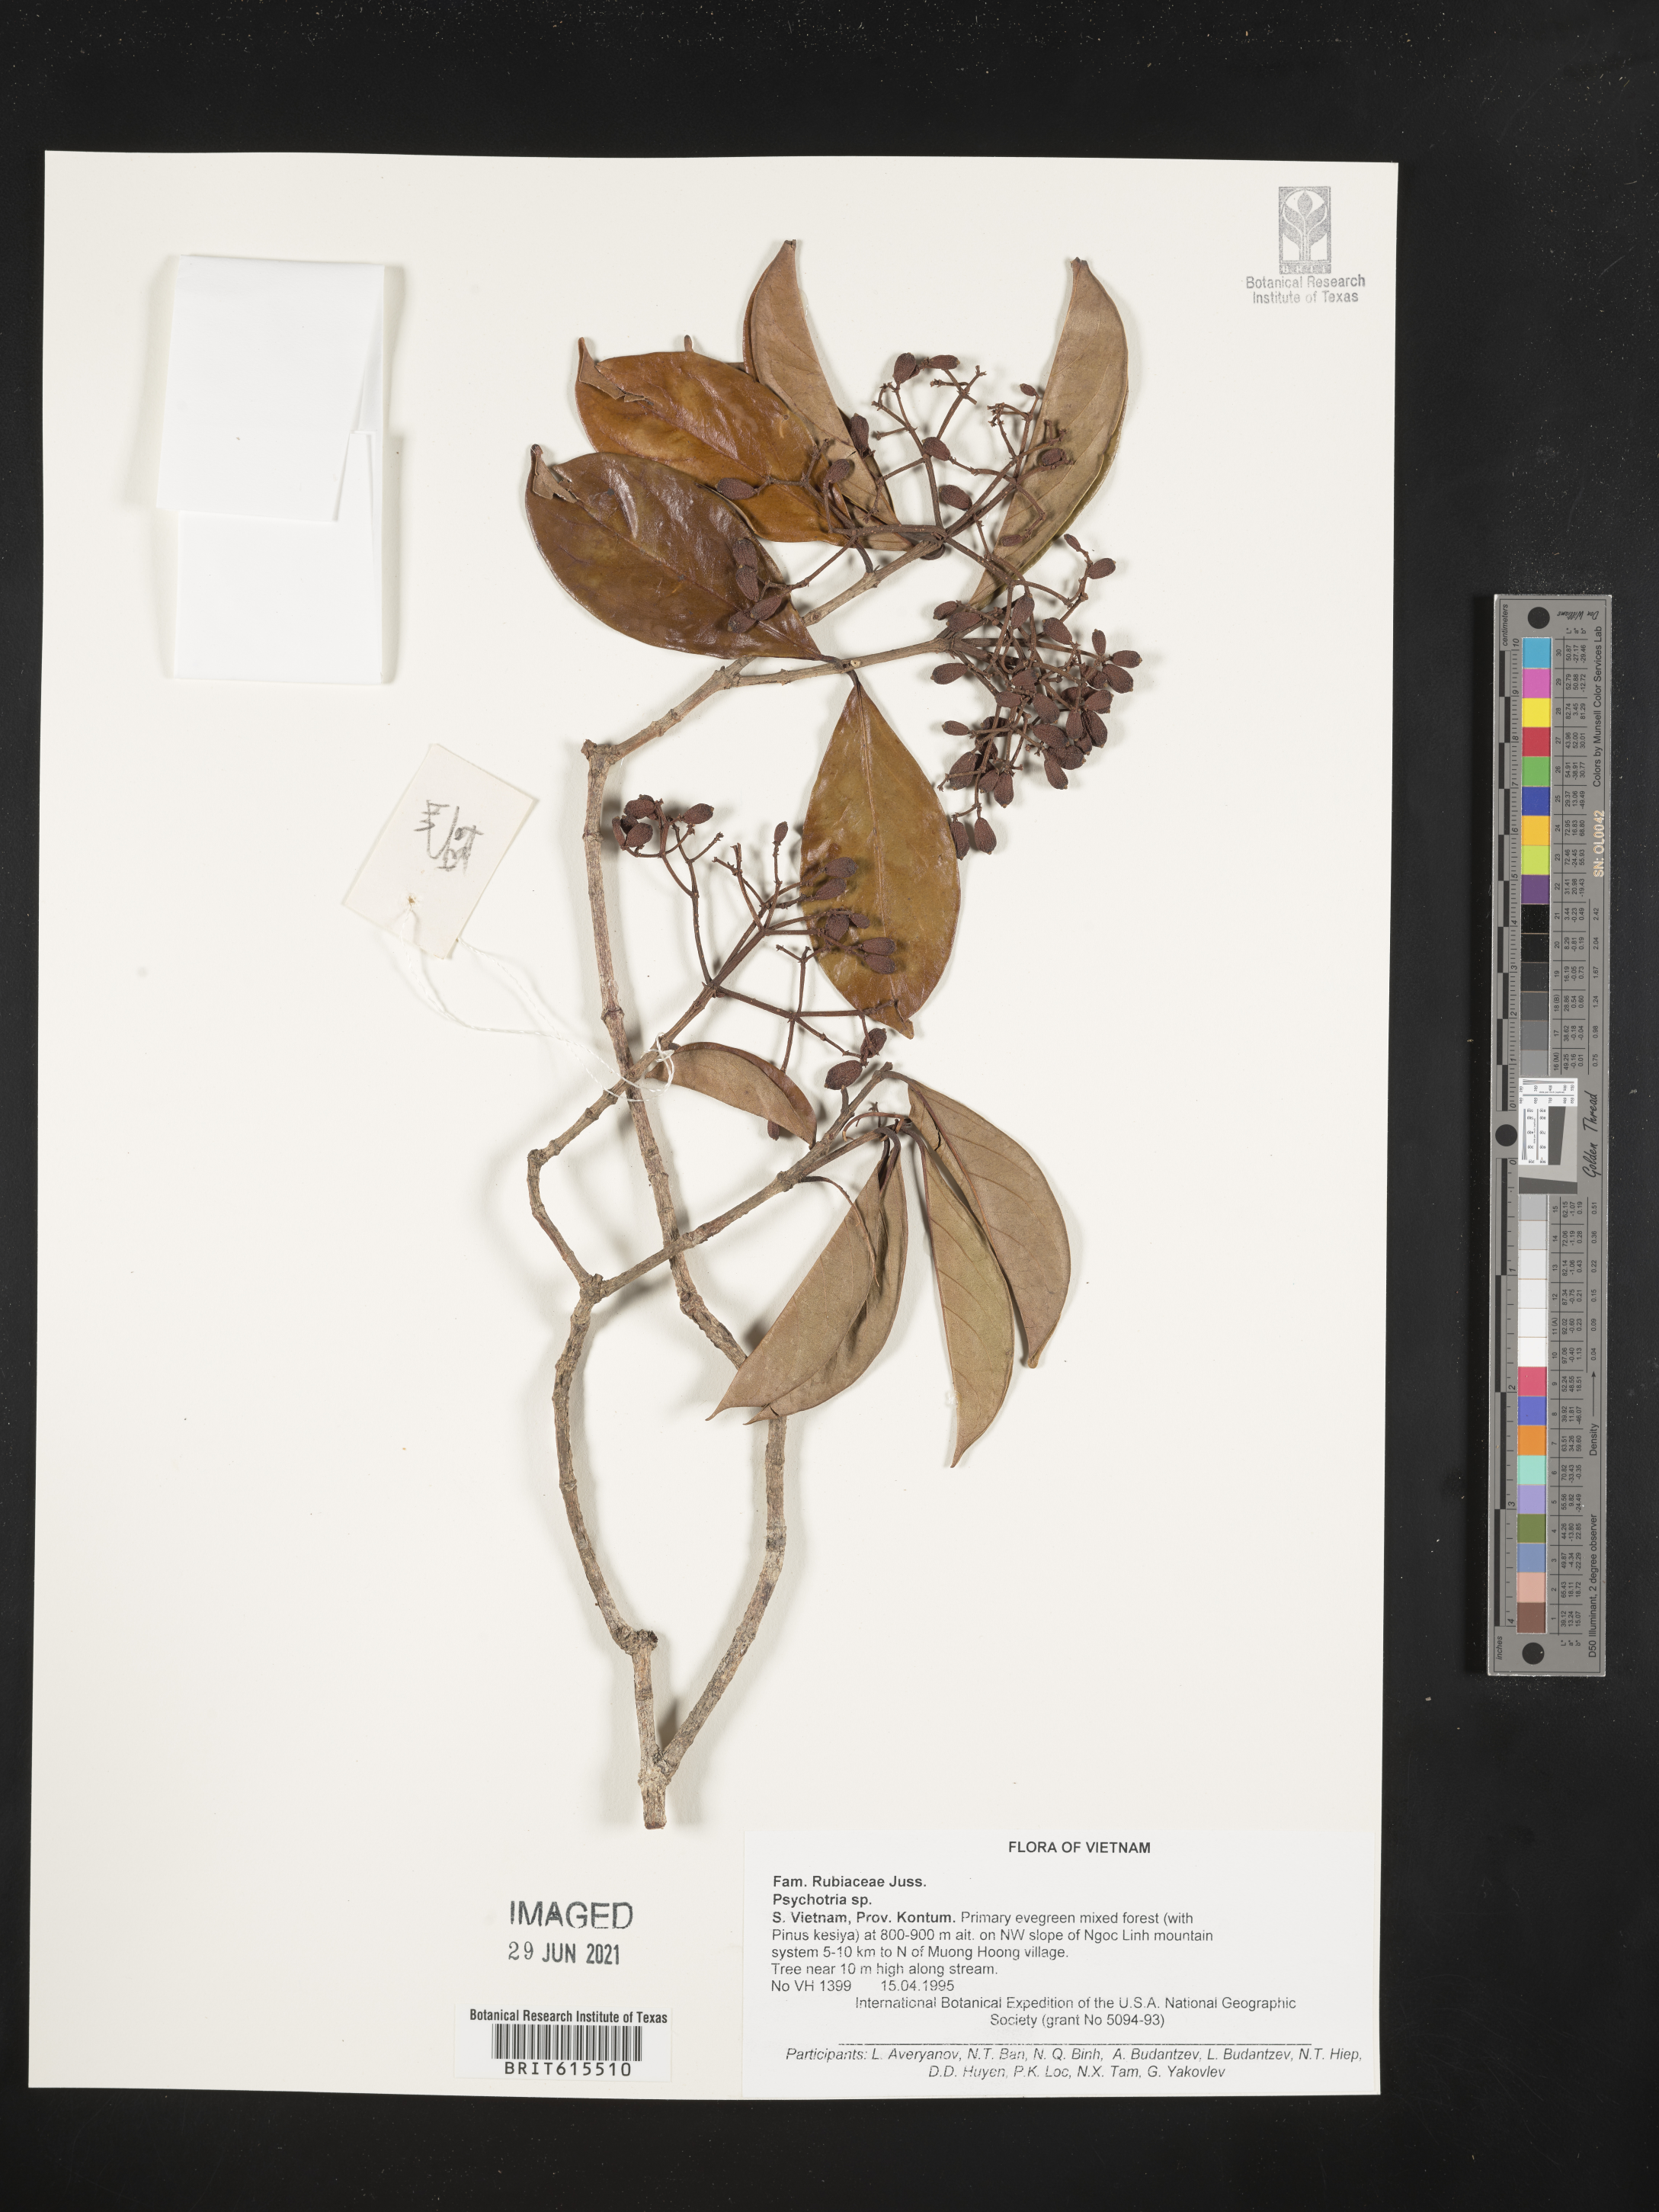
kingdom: Plantae
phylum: Tracheophyta
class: Magnoliopsida
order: Gentianales
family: Rubiaceae
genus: Psychotria
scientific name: Psychotria
